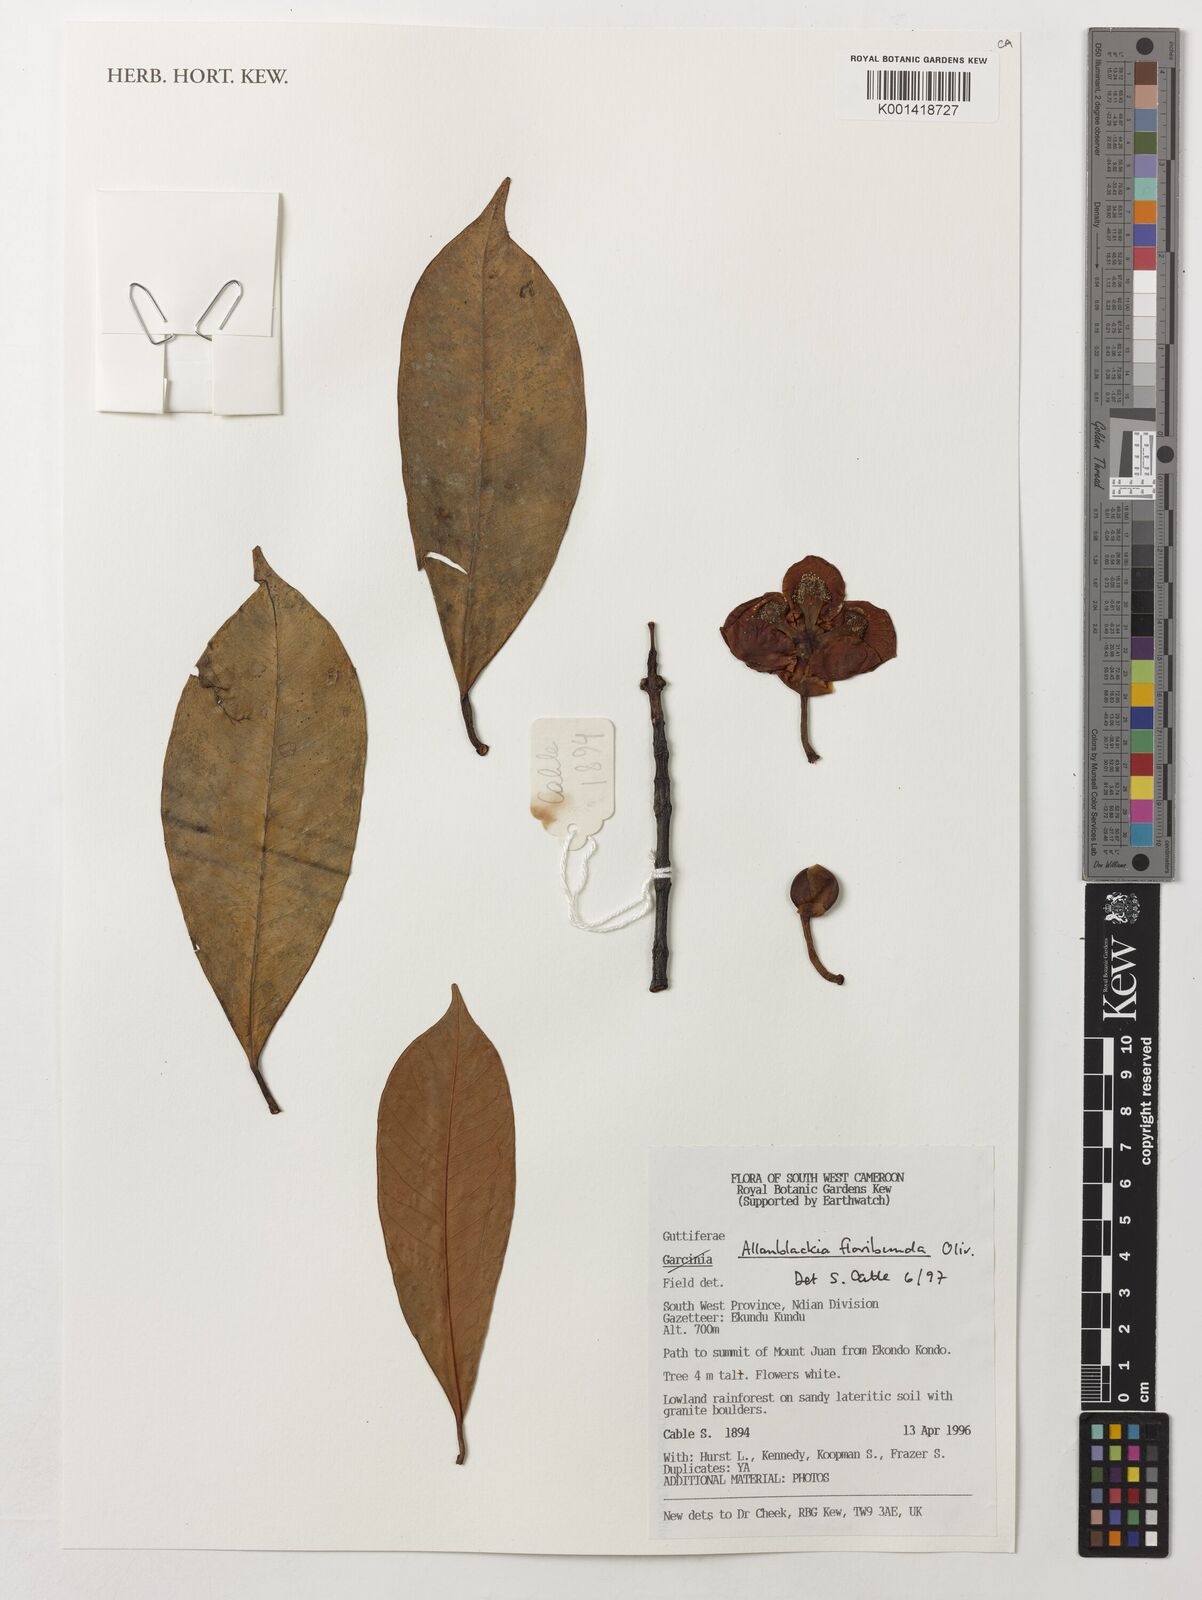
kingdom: Plantae
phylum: Tracheophyta
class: Magnoliopsida
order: Malpighiales
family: Clusiaceae
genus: Allanblackia
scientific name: Allanblackia floribunda
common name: Tallow tree
